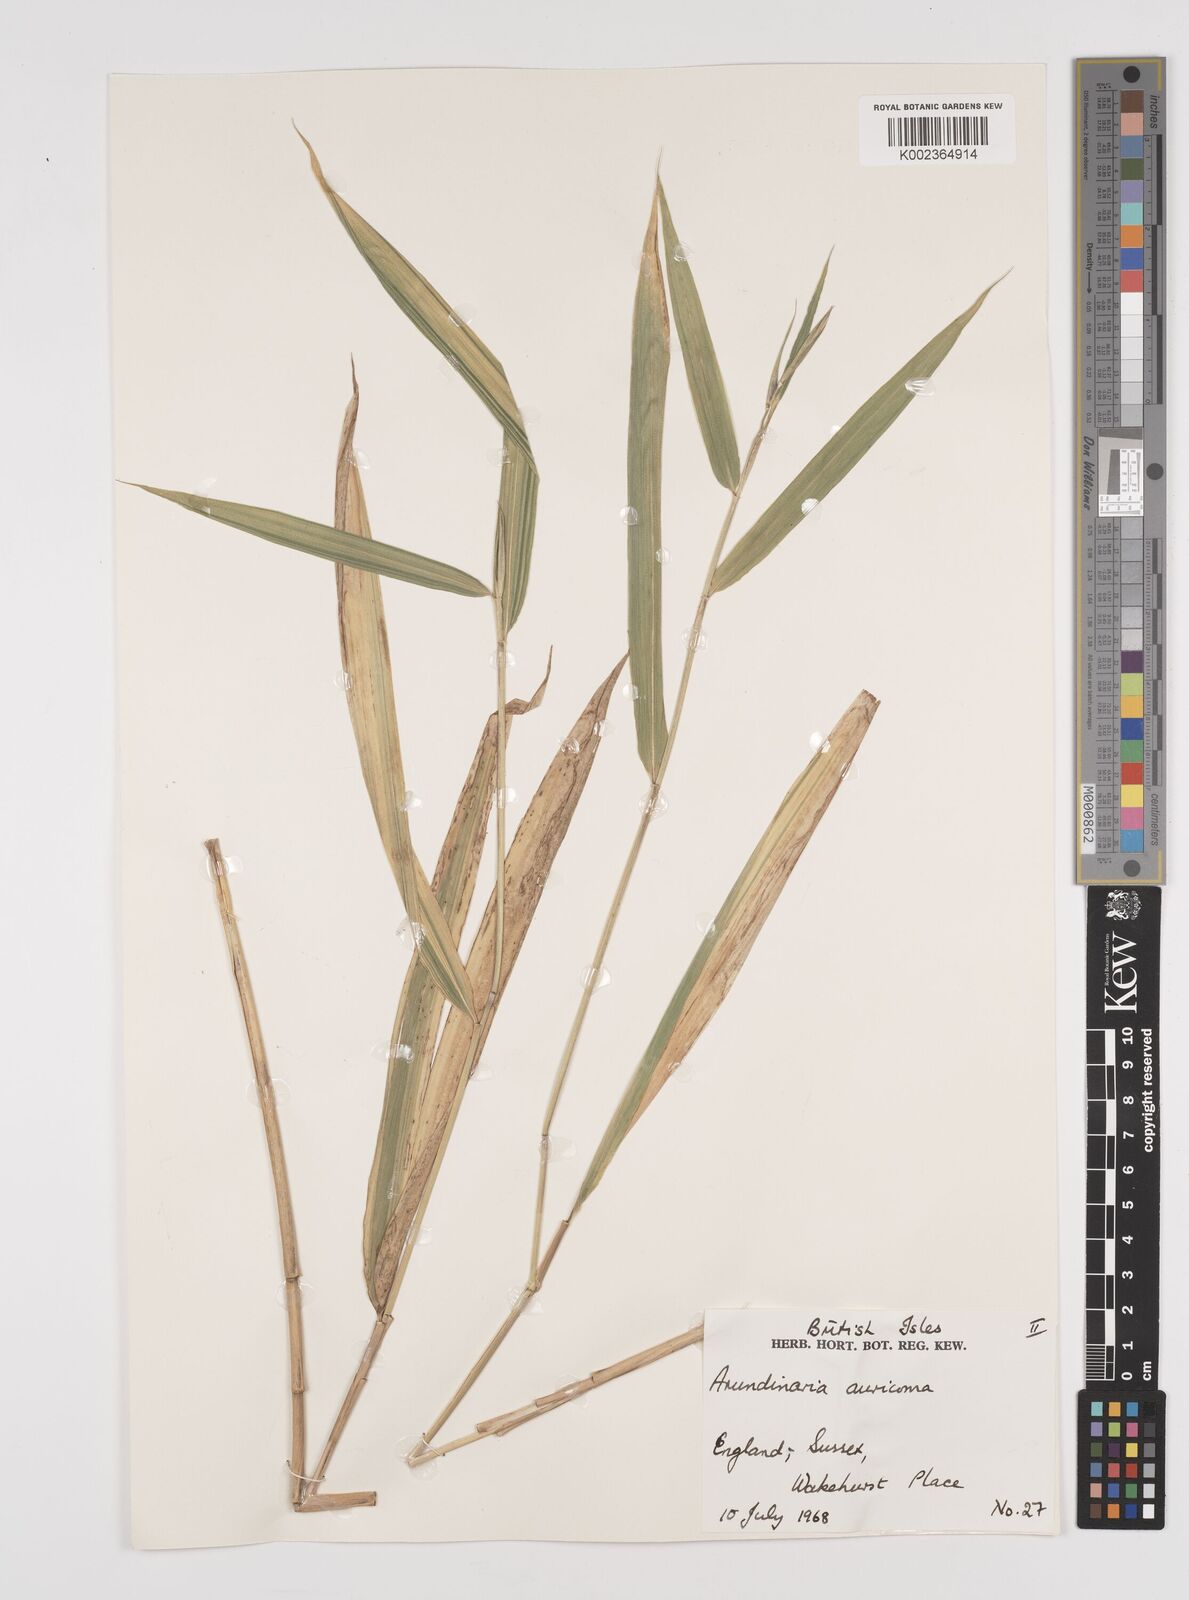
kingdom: Plantae
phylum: Tracheophyta
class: Liliopsida
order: Poales
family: Poaceae
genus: Pleioblastus
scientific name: Pleioblastus viridistriatus
